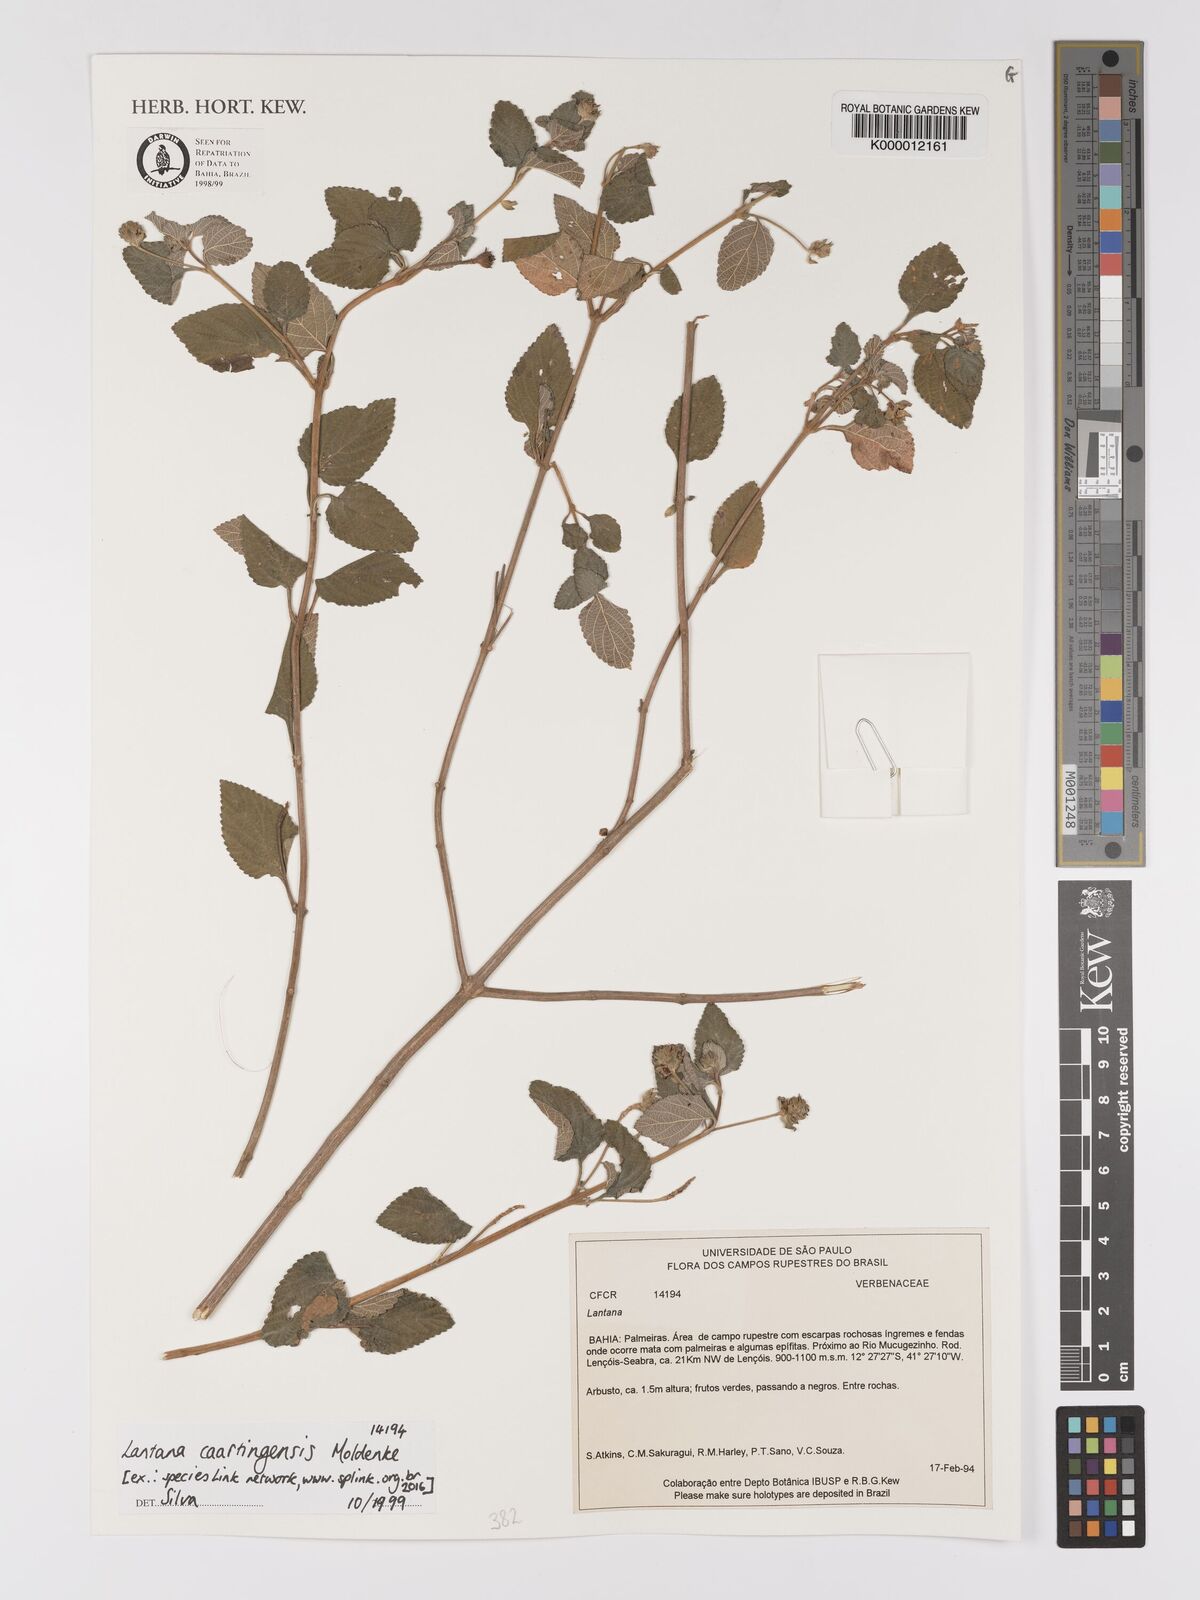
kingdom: Plantae
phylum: Tracheophyta
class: Magnoliopsida
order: Lamiales
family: Verbenaceae
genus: Lantana
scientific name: Lantana
